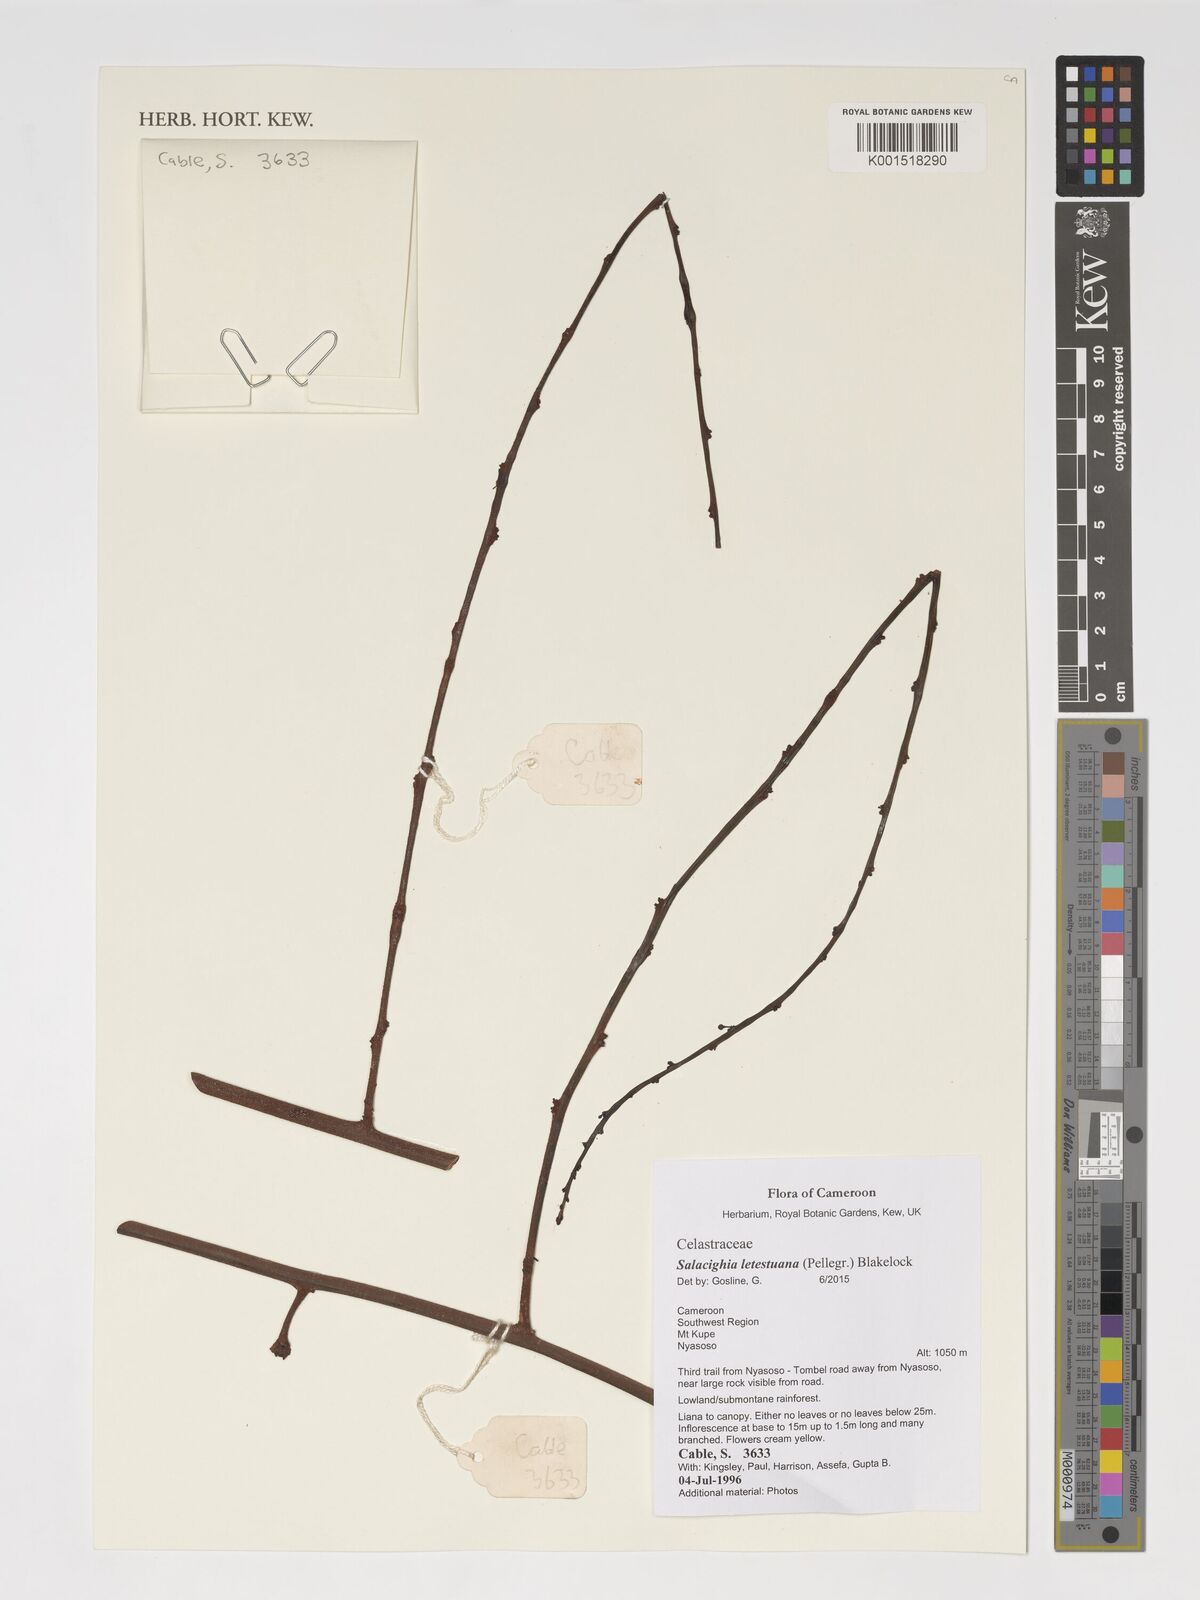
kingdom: Plantae
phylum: Tracheophyta
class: Magnoliopsida
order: Celastrales
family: Celastraceae
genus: Salacighia
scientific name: Salacighia letestuana
